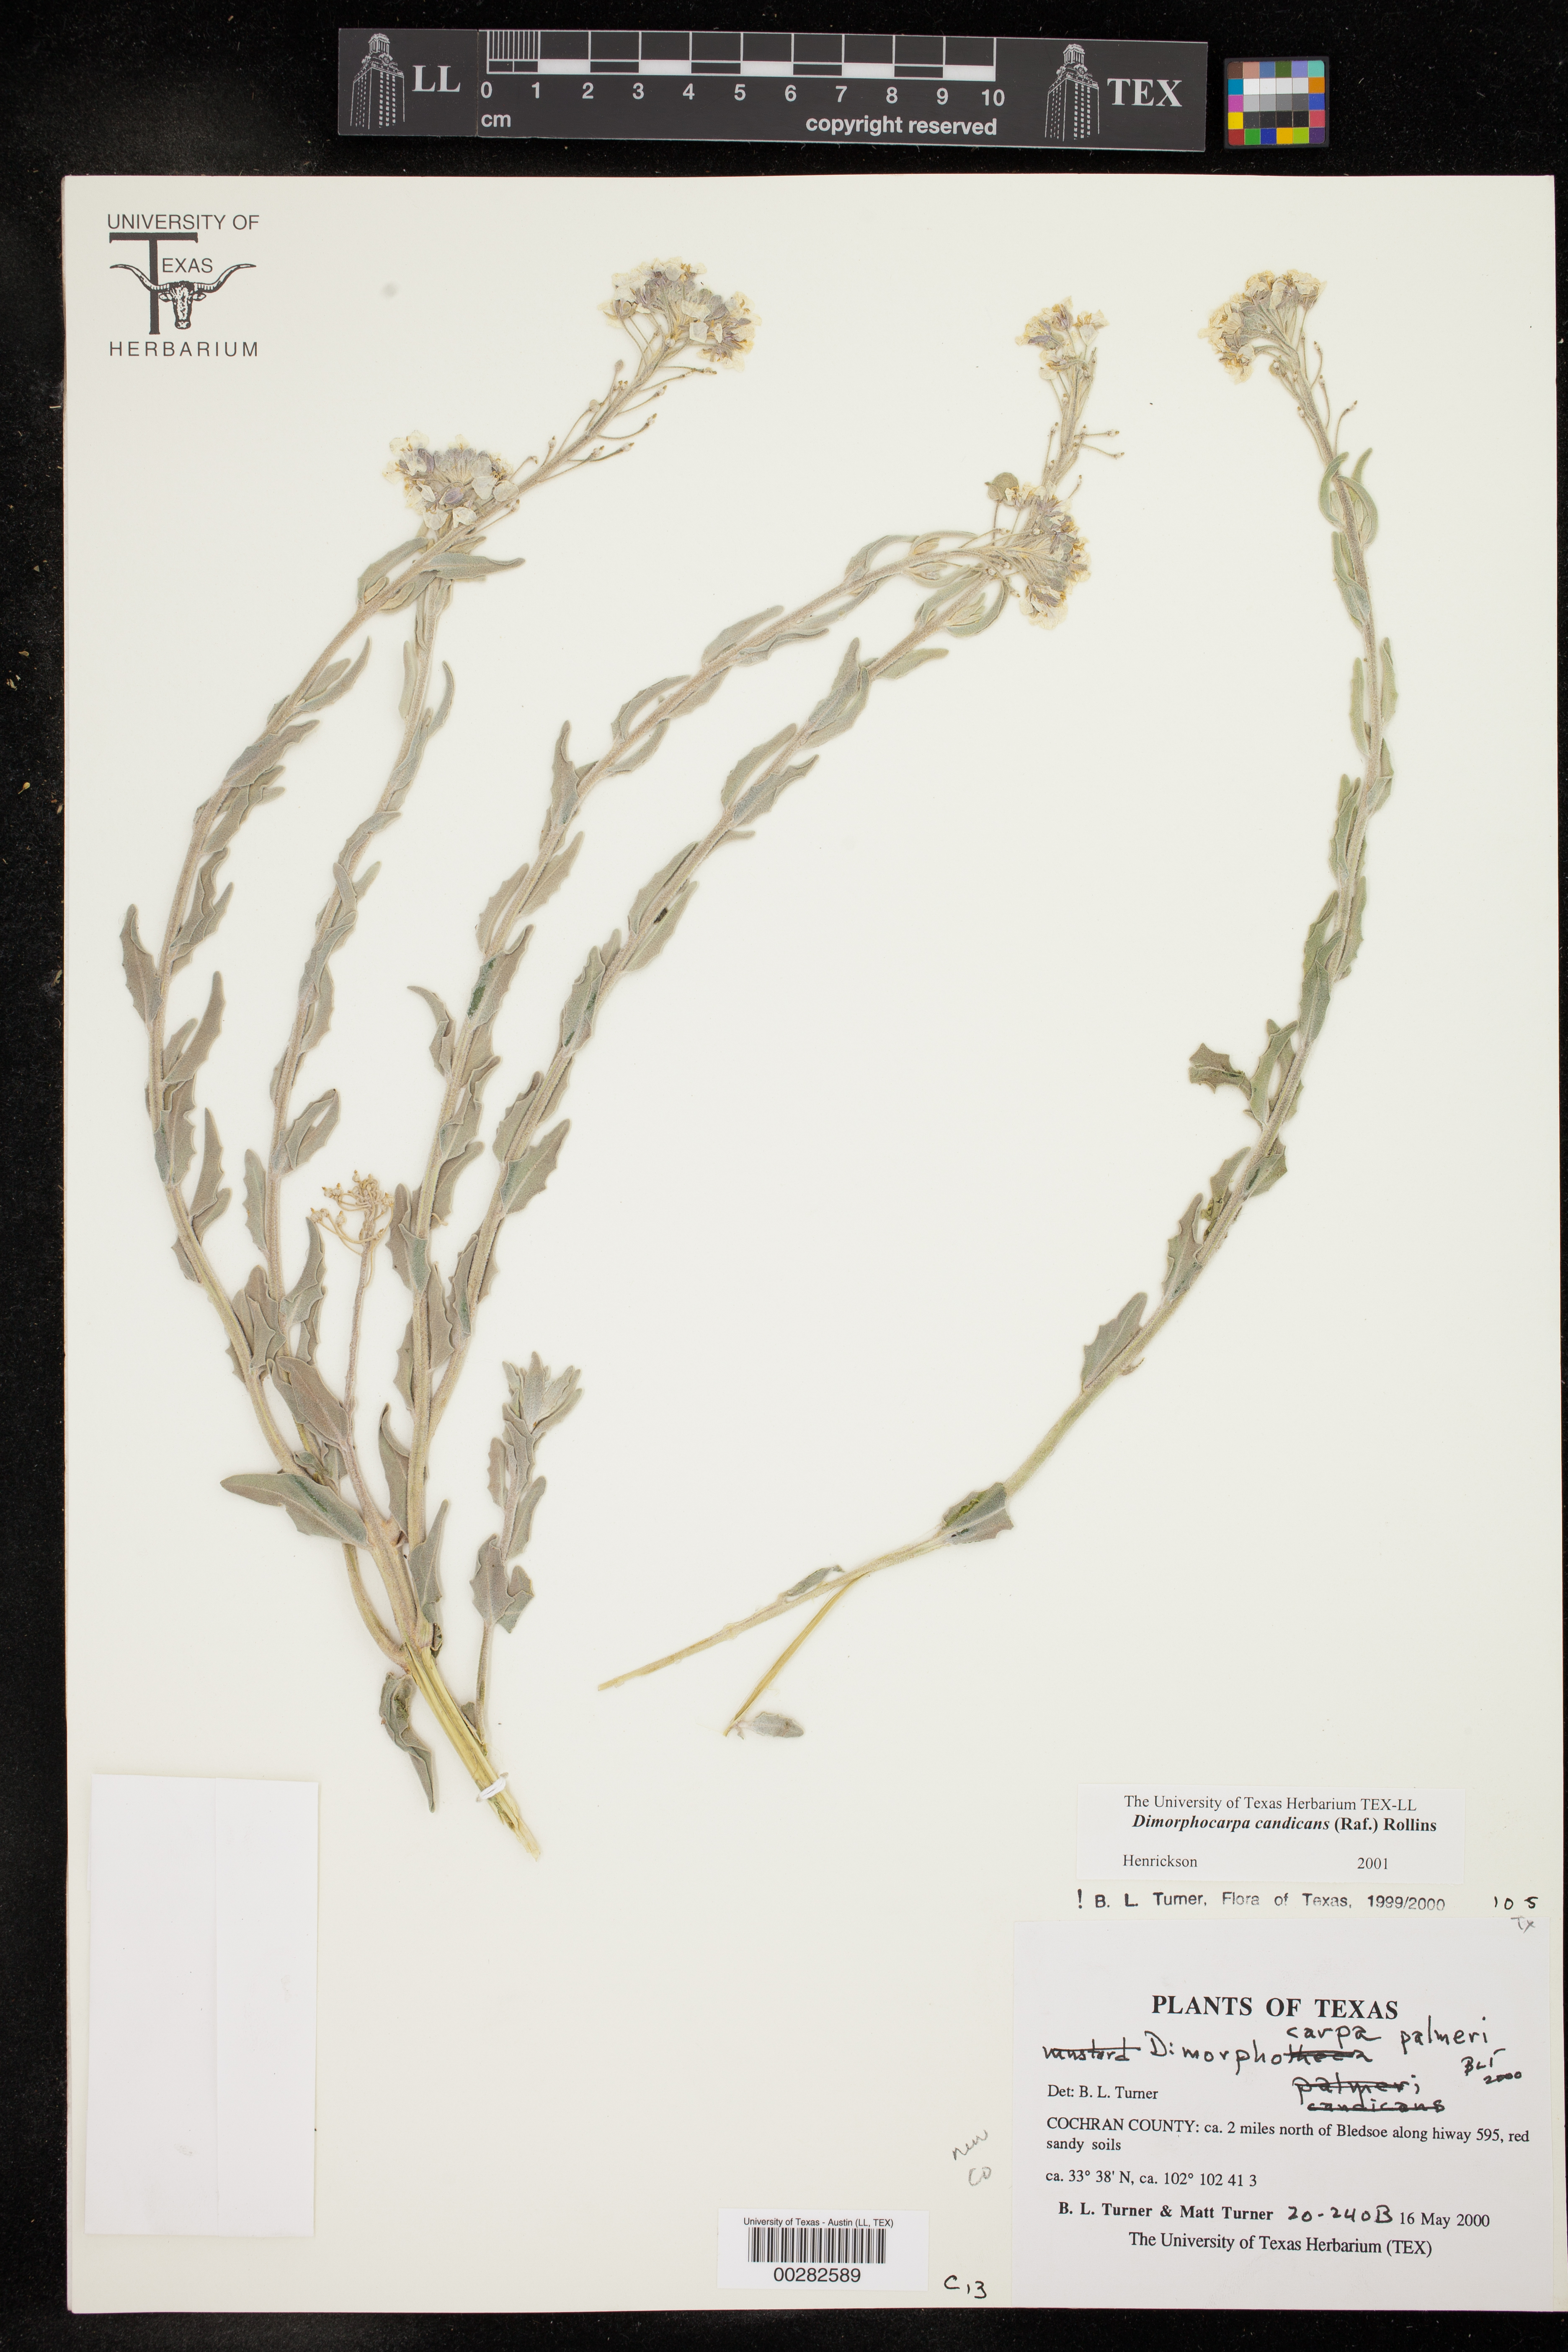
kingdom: Plantae
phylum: Tracheophyta
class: Magnoliopsida
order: Brassicales
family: Brassicaceae
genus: Dimorphocarpa
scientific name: Dimorphocarpa candicans
